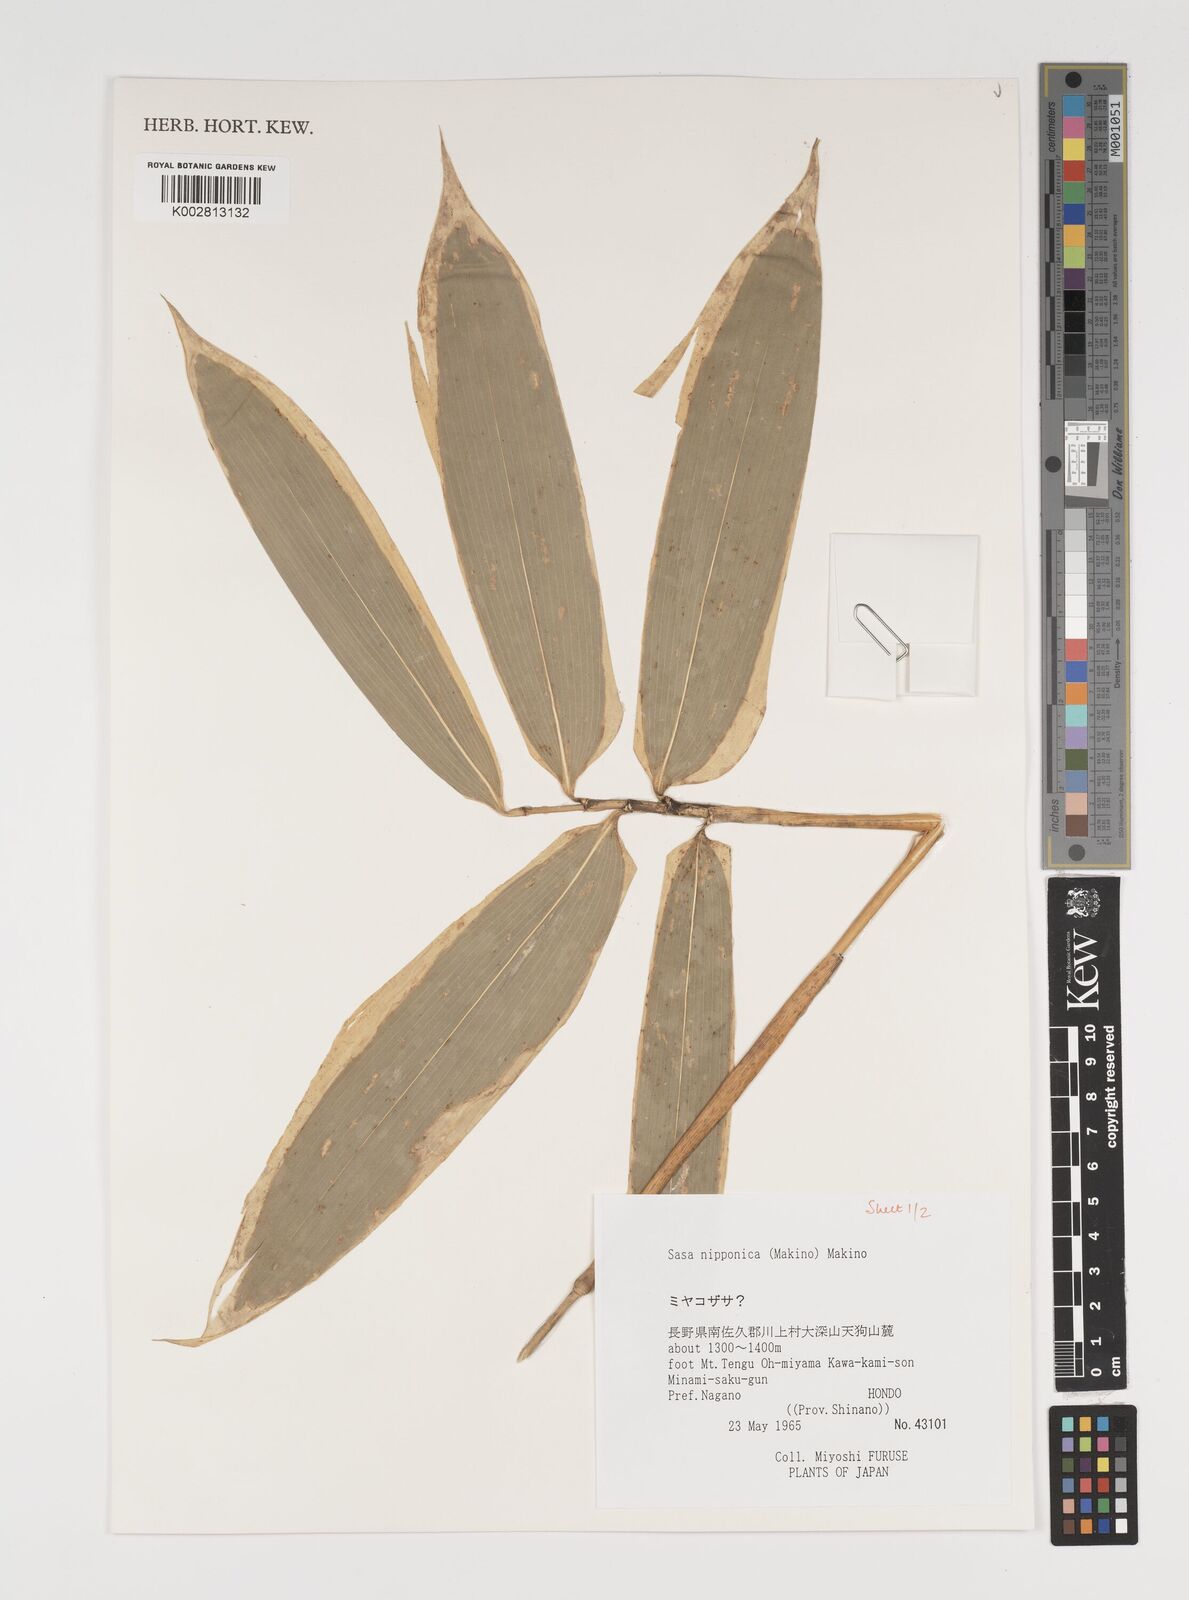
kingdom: Plantae
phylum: Tracheophyta
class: Liliopsida
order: Poales
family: Poaceae
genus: Sasa
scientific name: Sasa nipponica
